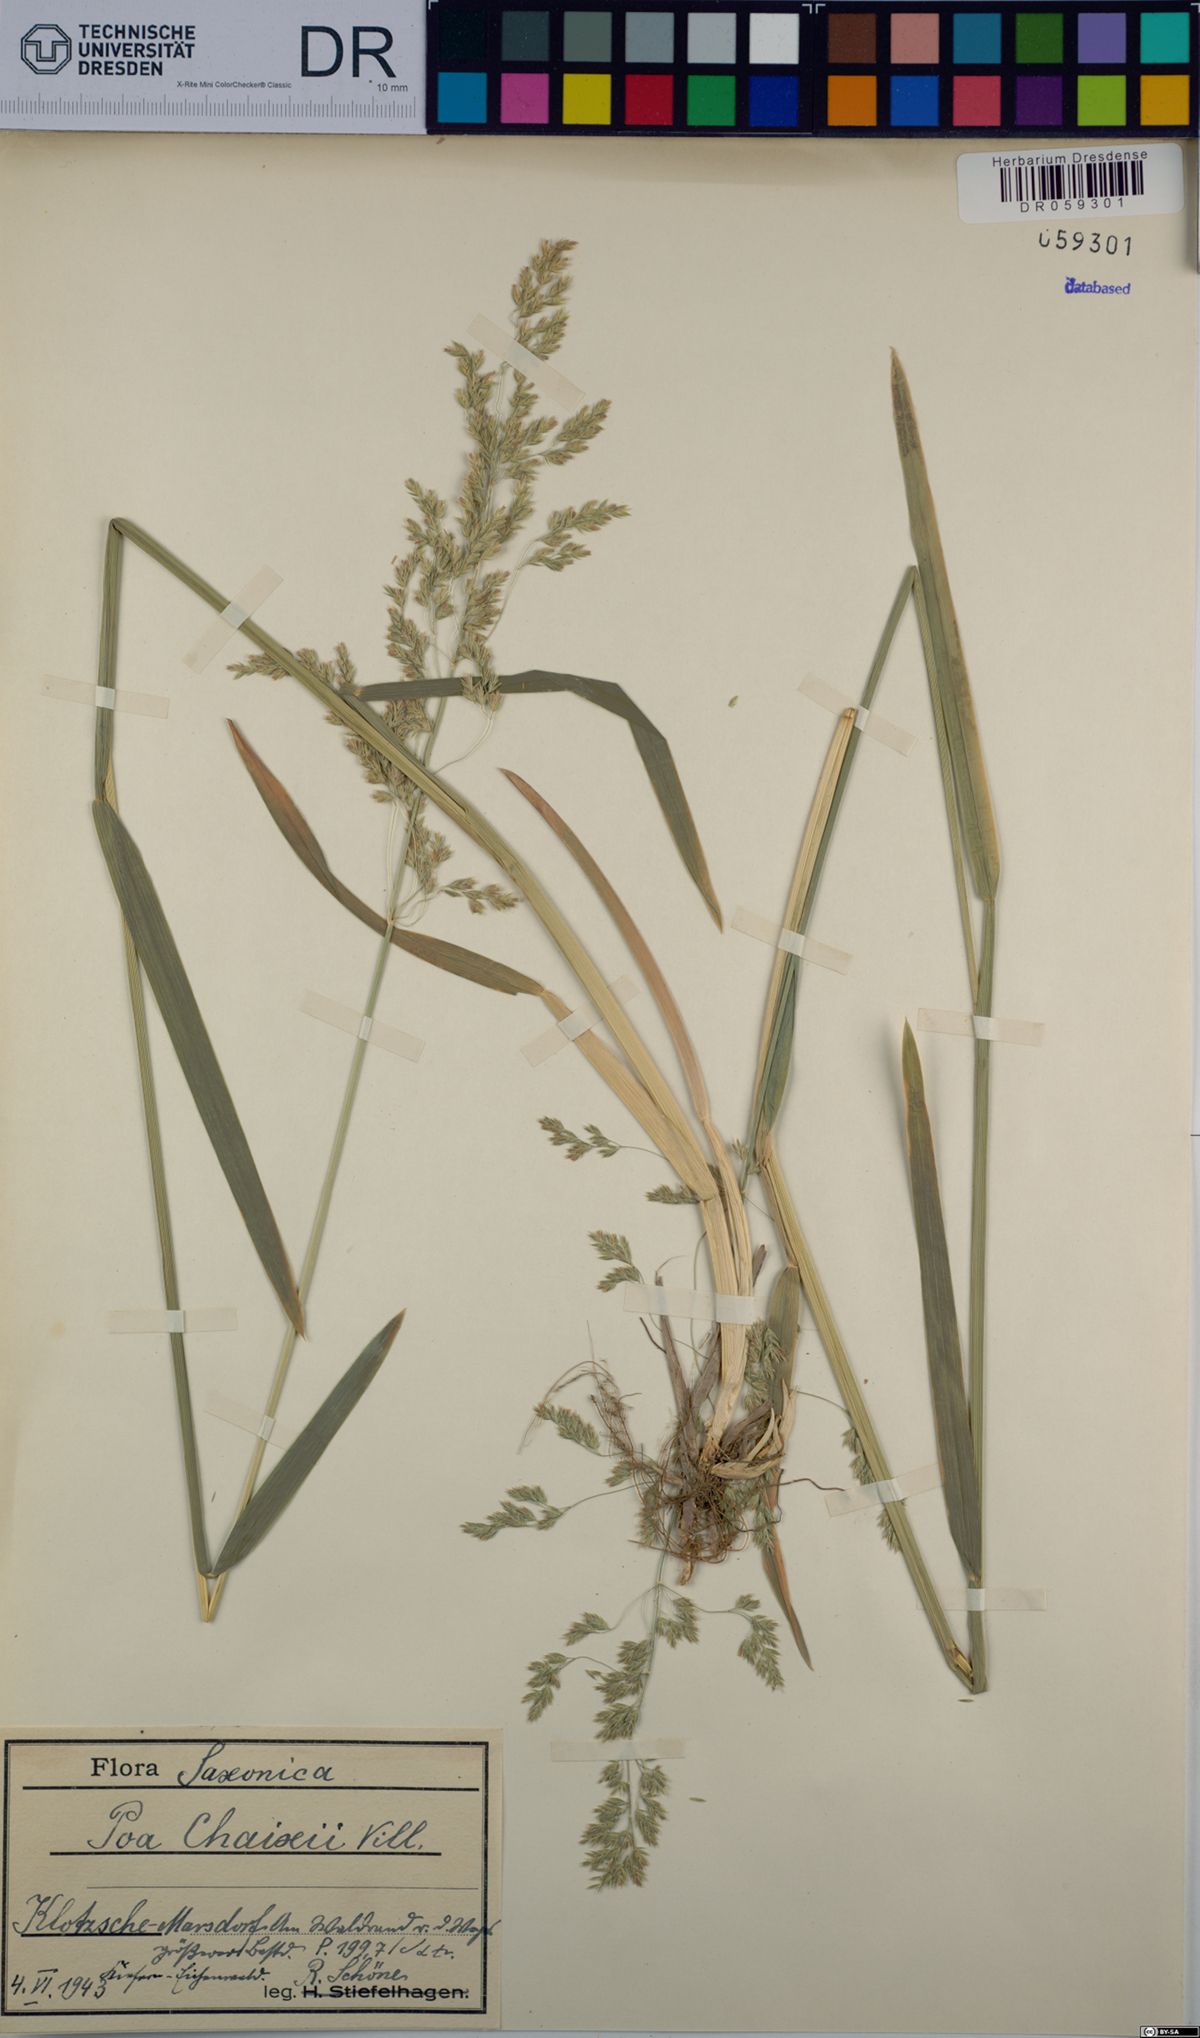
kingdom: Plantae
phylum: Tracheophyta
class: Liliopsida
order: Poales
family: Poaceae
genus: Poa
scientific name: Poa chaixii
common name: Broad-leaved meadow-grass
